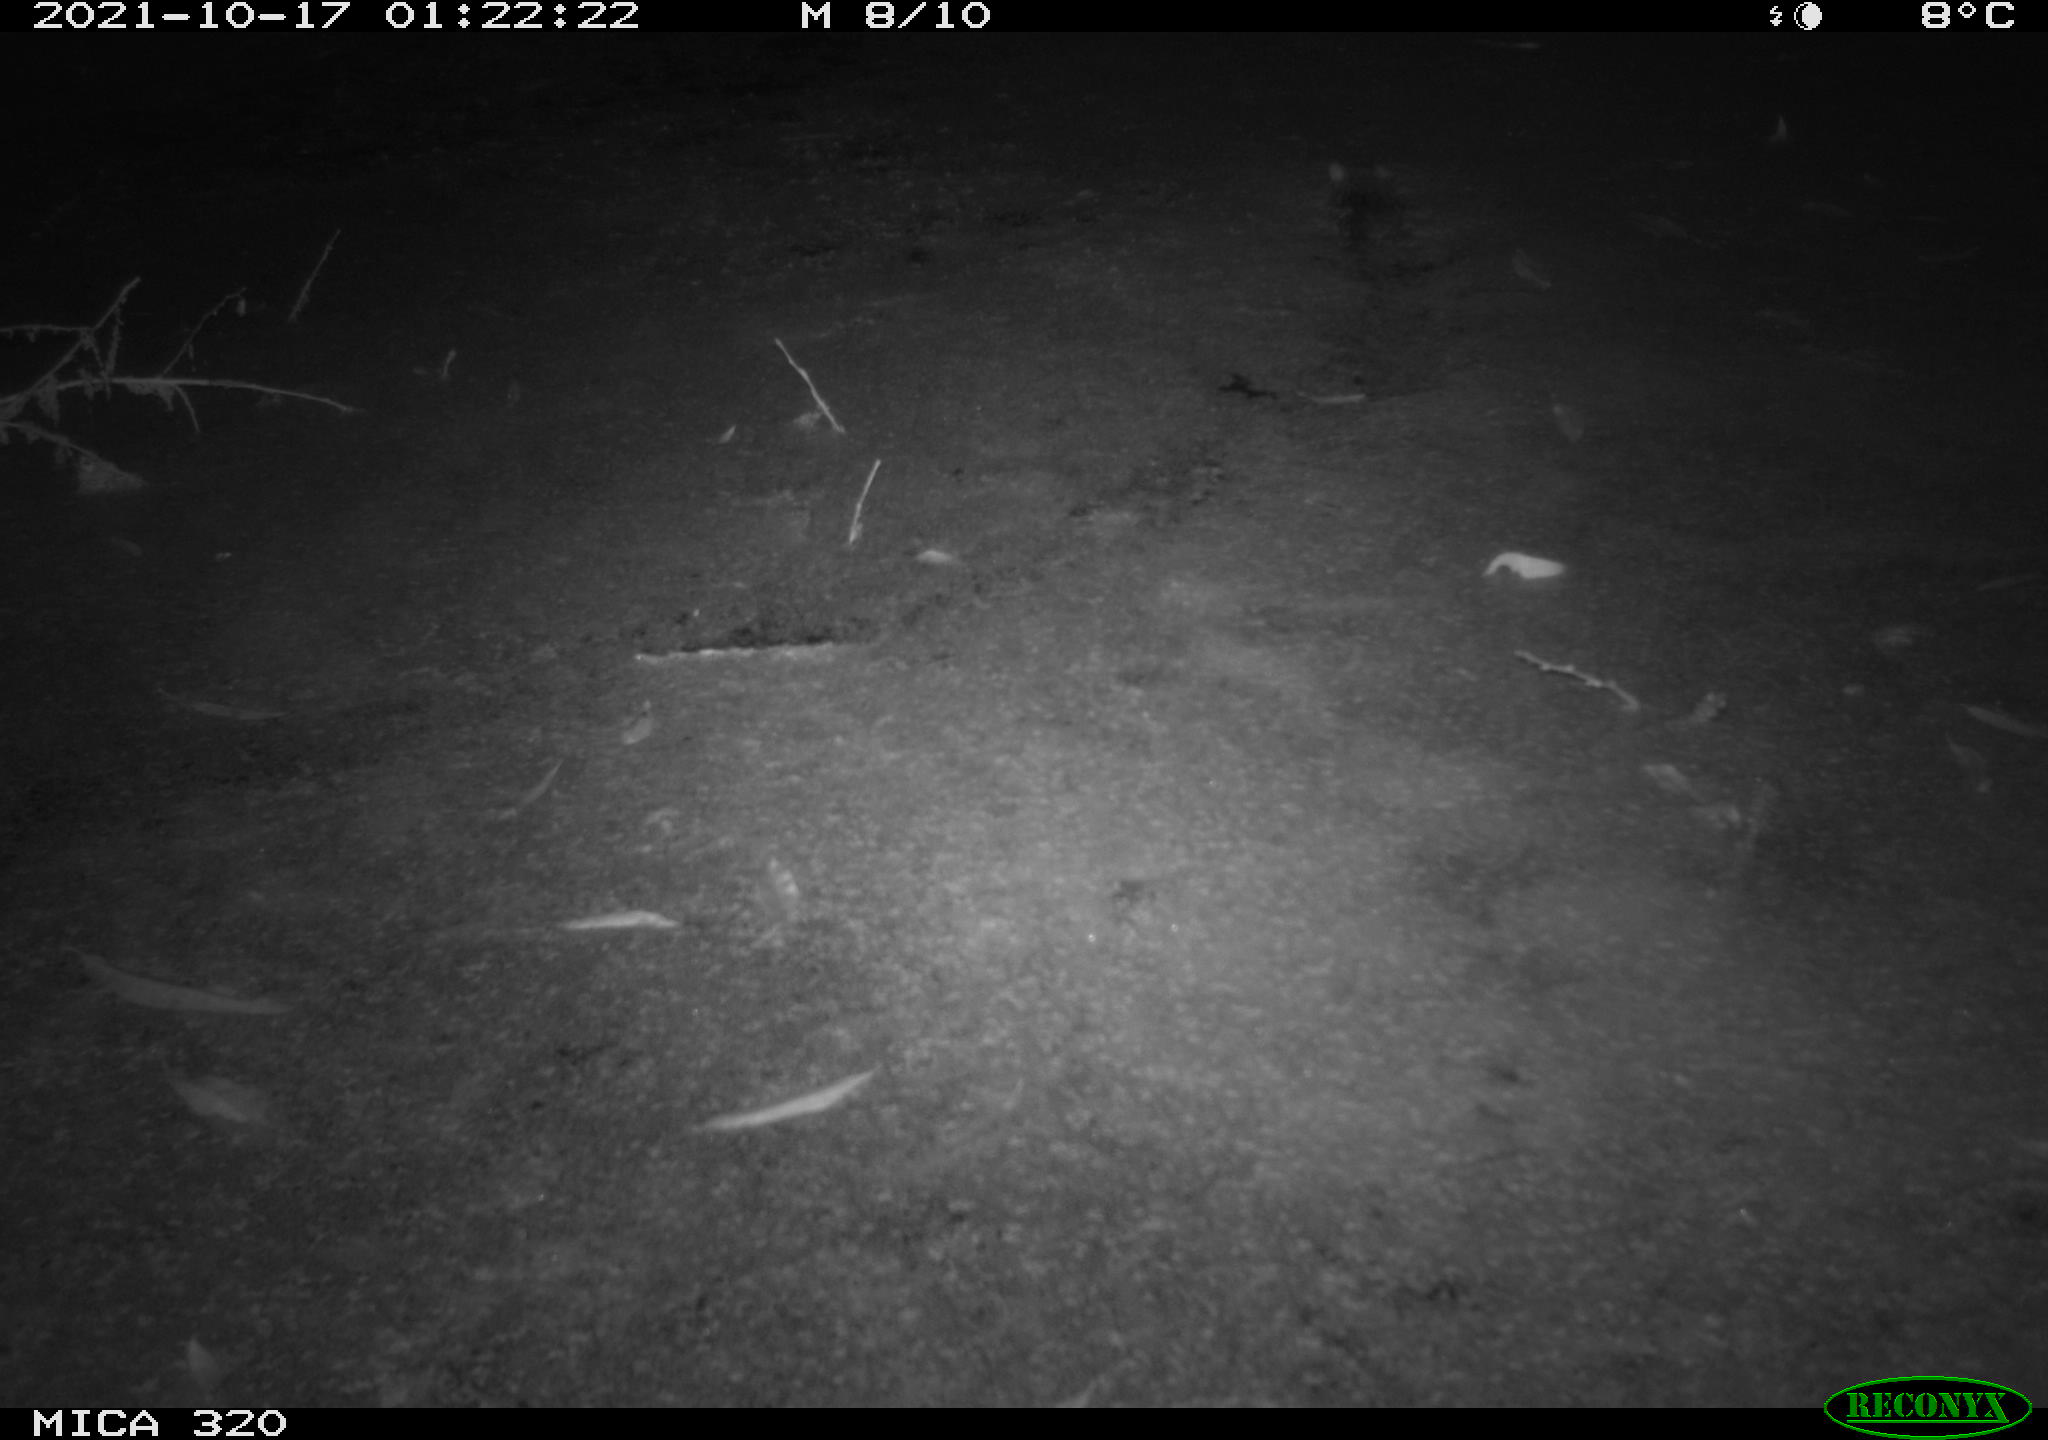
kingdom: Animalia
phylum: Chordata
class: Mammalia
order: Rodentia
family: Muridae
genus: Rattus
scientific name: Rattus norvegicus
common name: Brown rat
